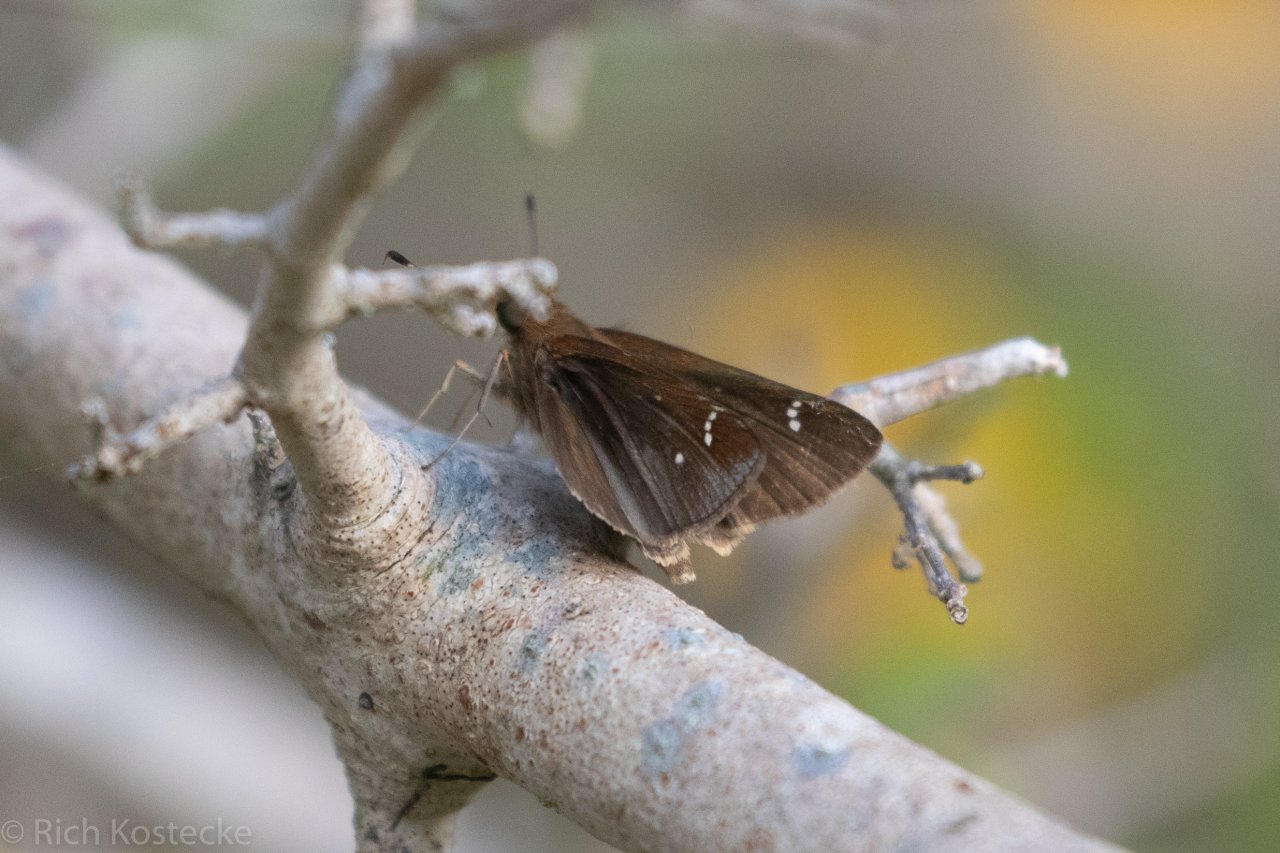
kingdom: Animalia
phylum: Arthropoda
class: Insecta
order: Lepidoptera
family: Hesperiidae
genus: Lerema
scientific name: Lerema accius
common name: Clouded Skipper
